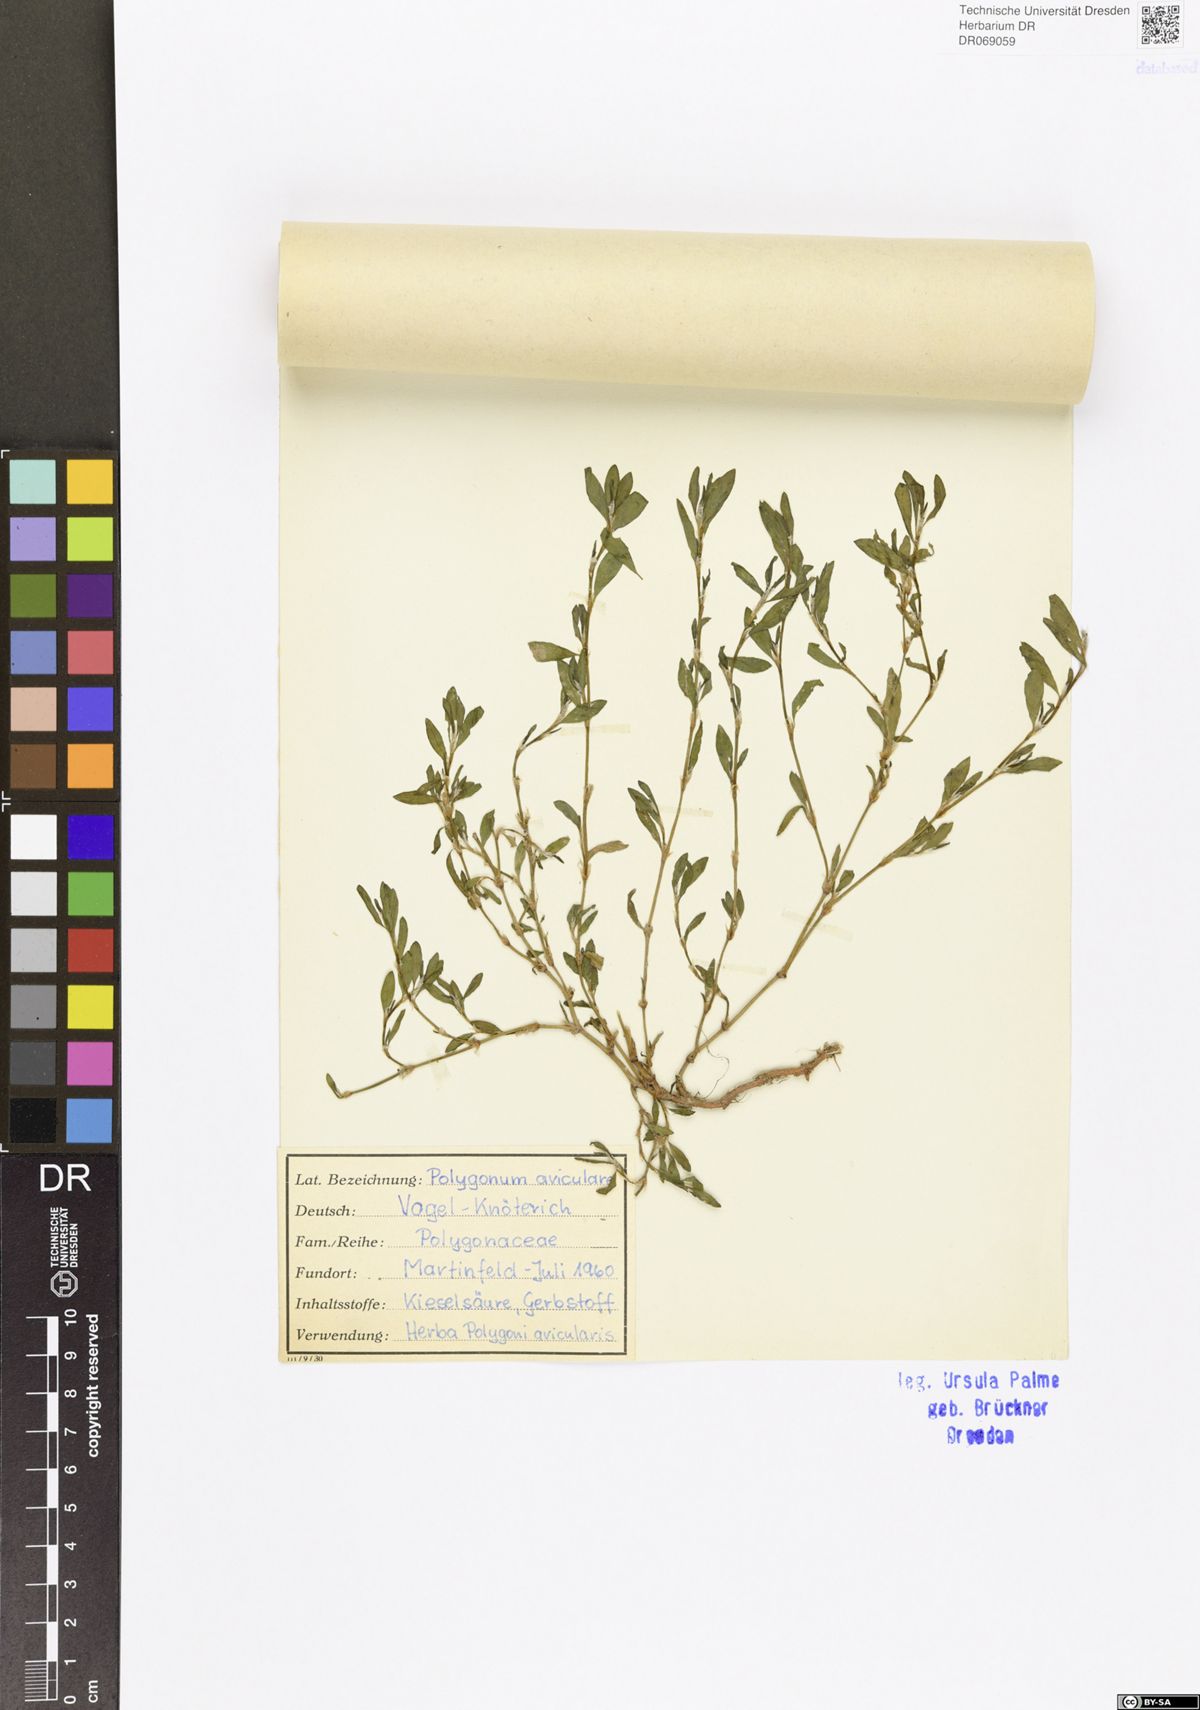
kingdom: Plantae
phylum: Tracheophyta
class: Magnoliopsida
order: Caryophyllales
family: Polygonaceae
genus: Polygonum
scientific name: Polygonum aviculare
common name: Prostrate knotweed
